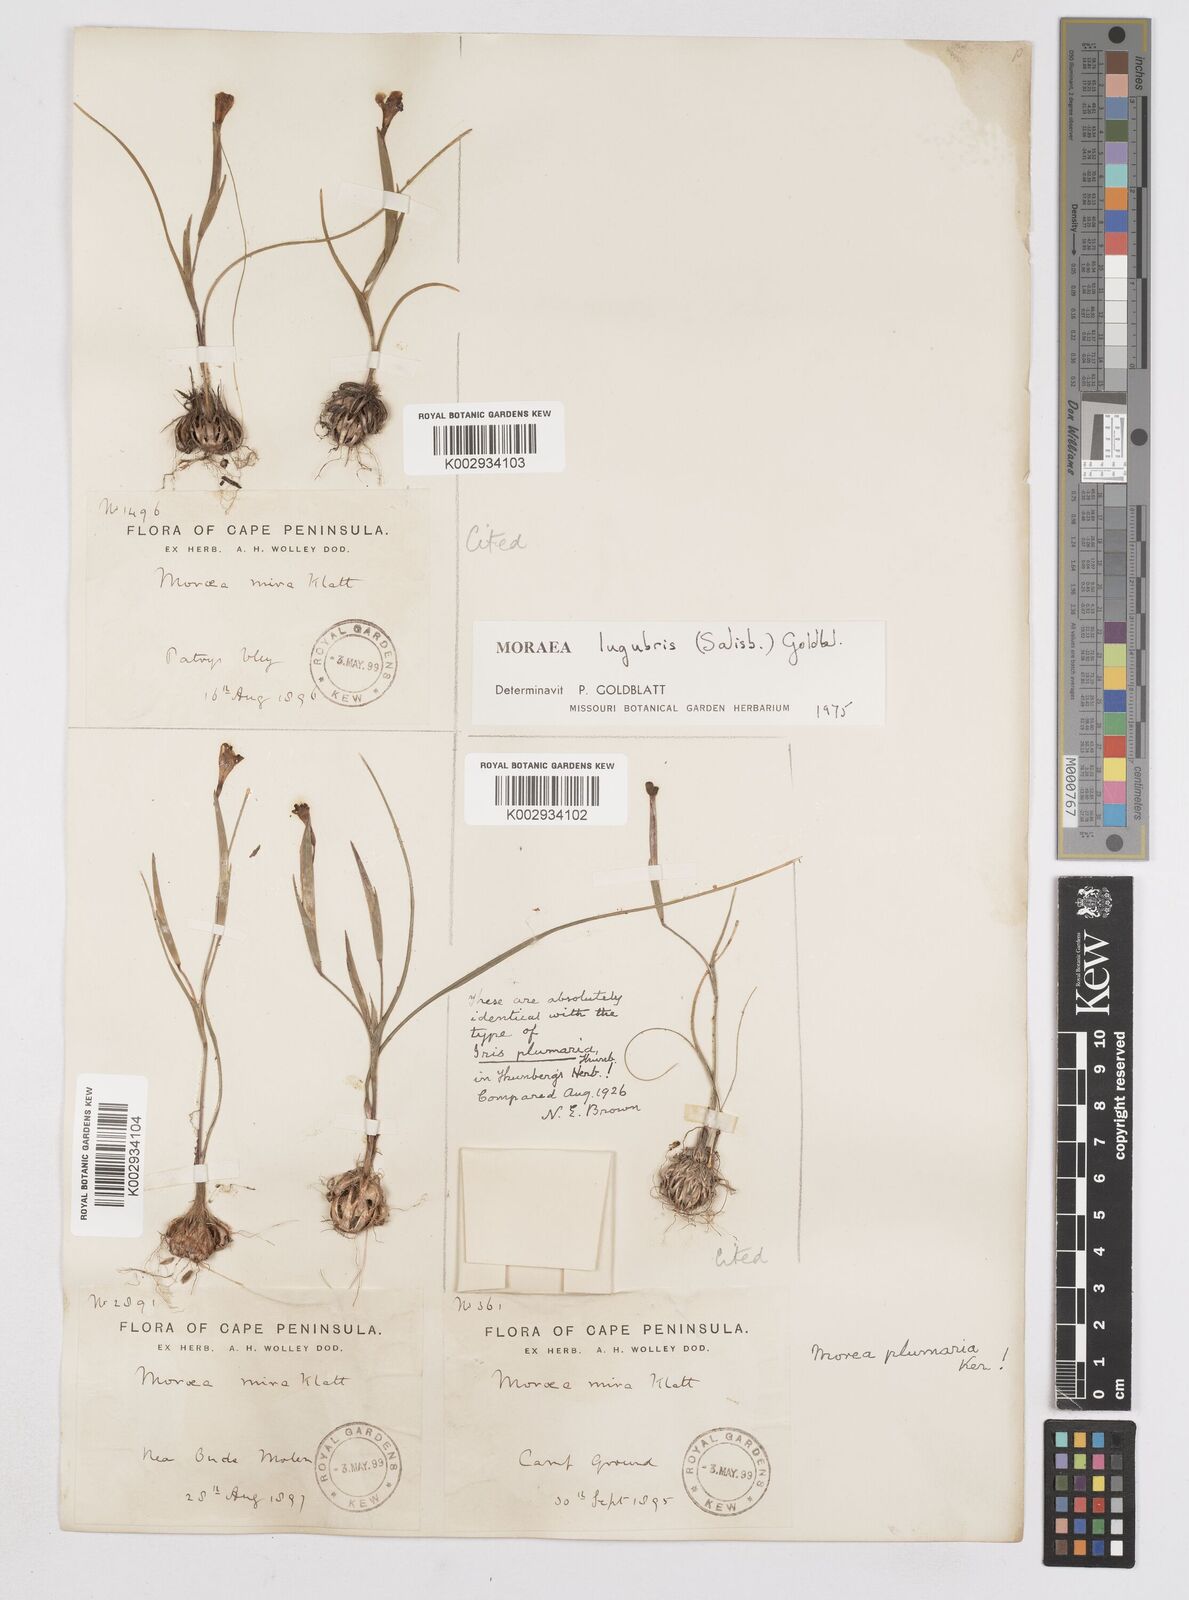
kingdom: Plantae
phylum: Tracheophyta
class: Liliopsida
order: Asparagales
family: Iridaceae
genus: Moraea
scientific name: Moraea lugubris
